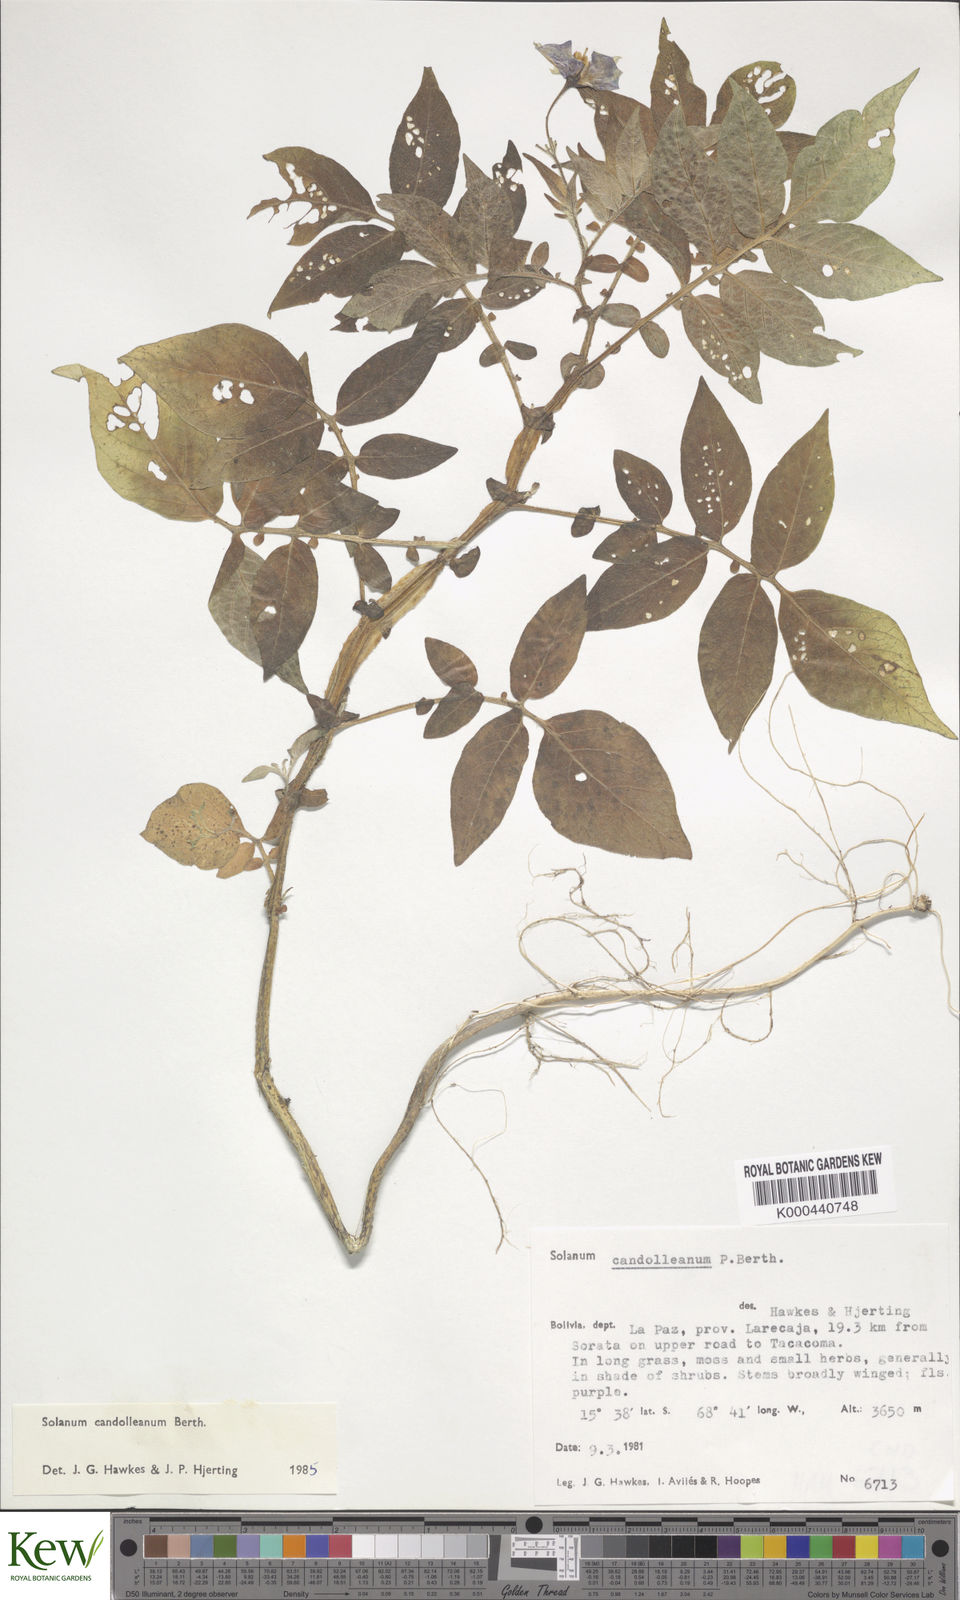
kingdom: Plantae
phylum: Tracheophyta
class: Magnoliopsida
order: Solanales
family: Solanaceae
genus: Solanum
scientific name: Solanum brevicaule
